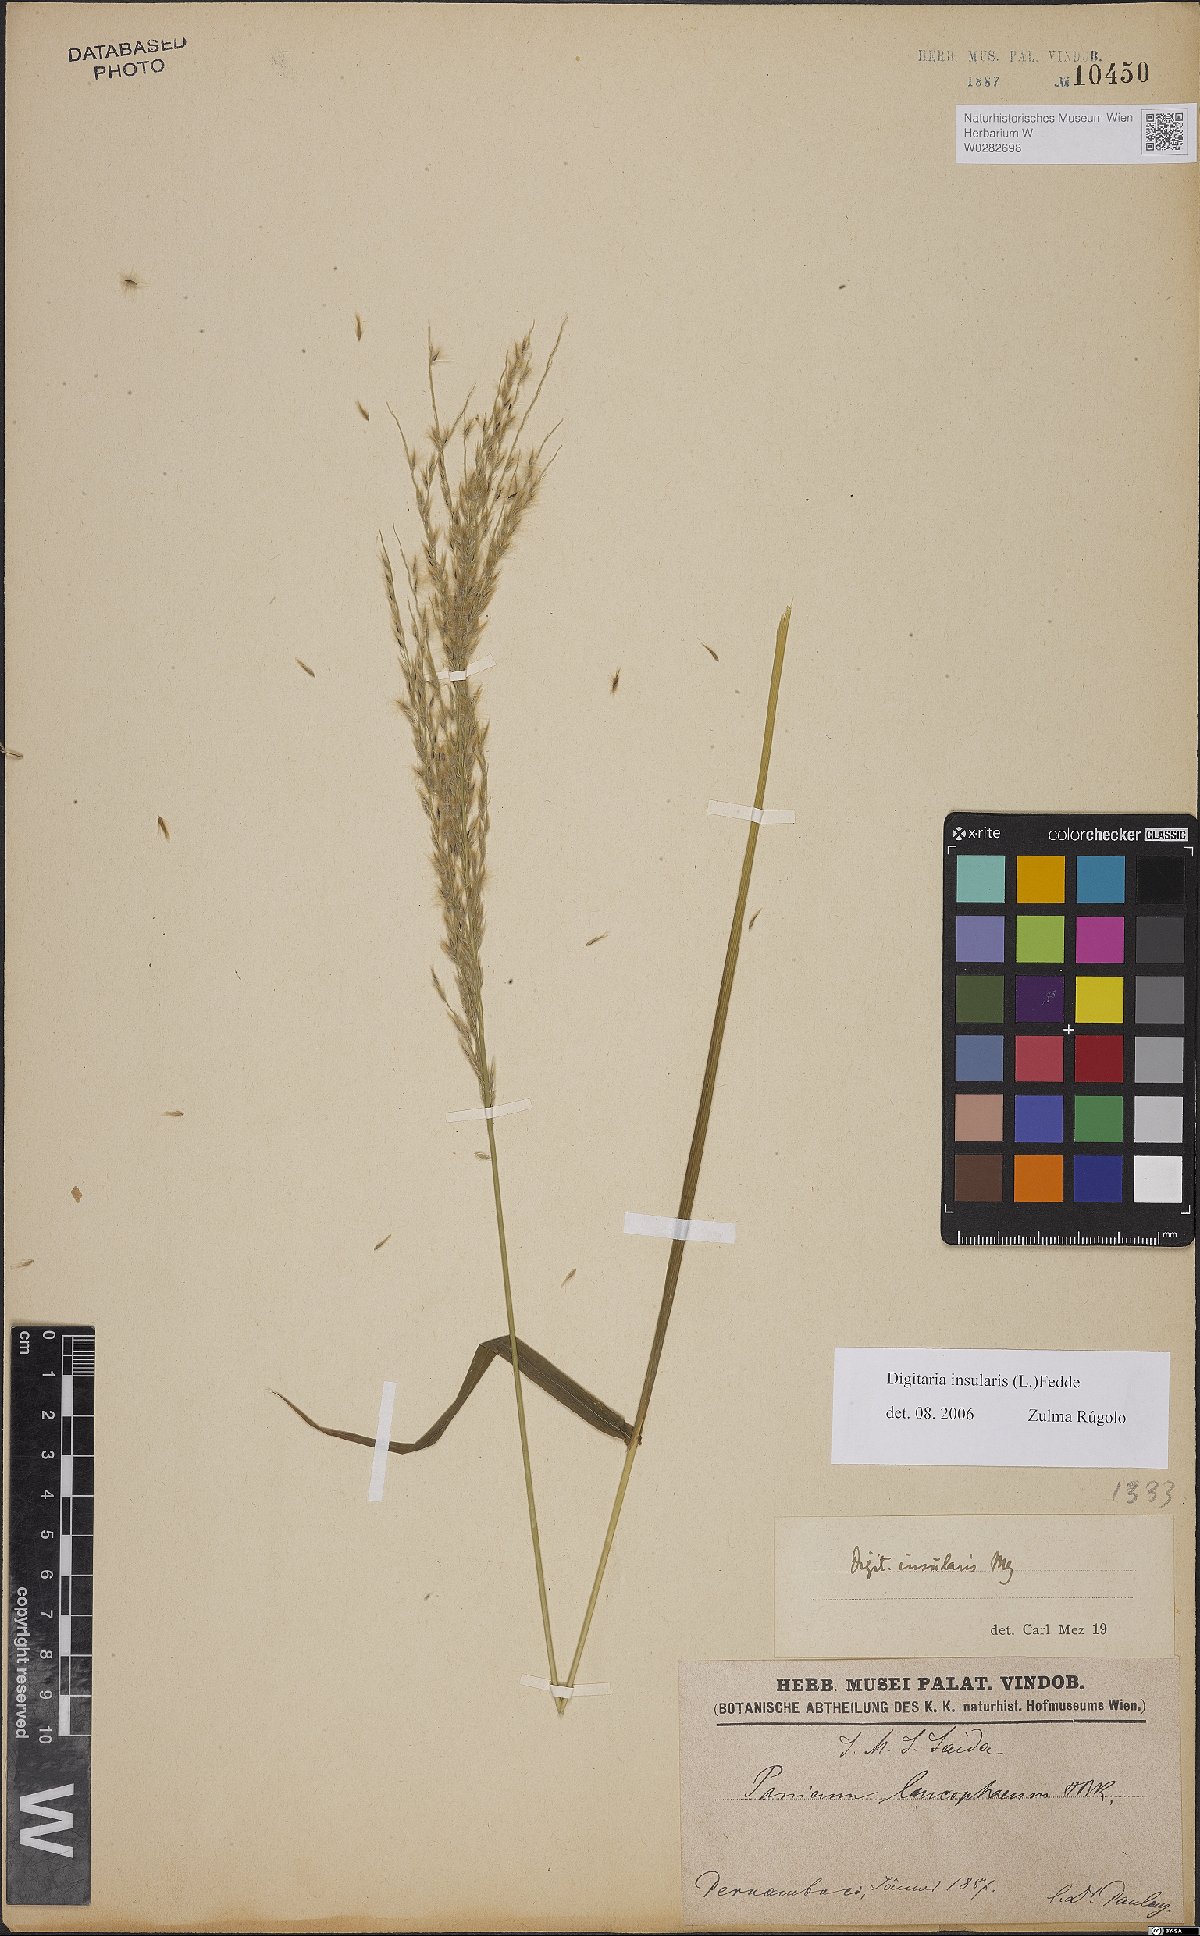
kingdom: Plantae
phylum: Tracheophyta
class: Liliopsida
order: Poales
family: Poaceae
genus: Digitaria
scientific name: Digitaria insularis
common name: Sourgrass
